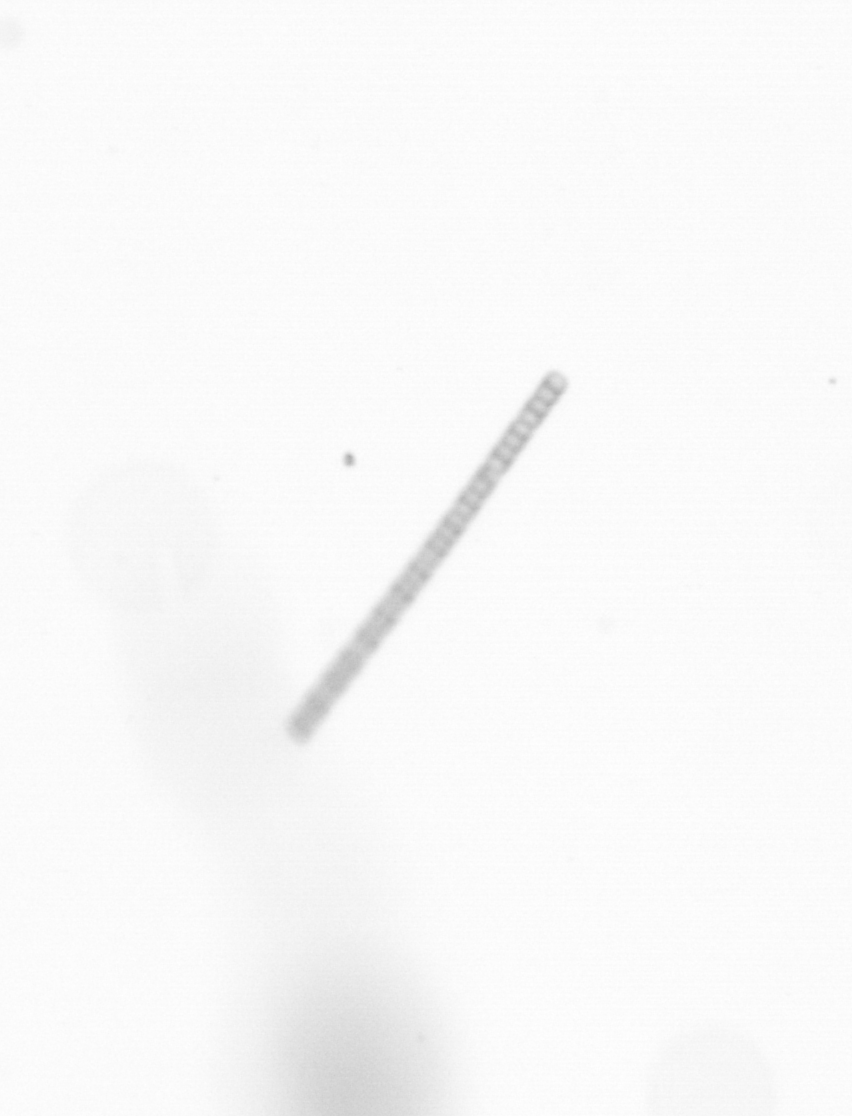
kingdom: Chromista
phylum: Ochrophyta
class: Bacillariophyceae
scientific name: Bacillariophyceae
